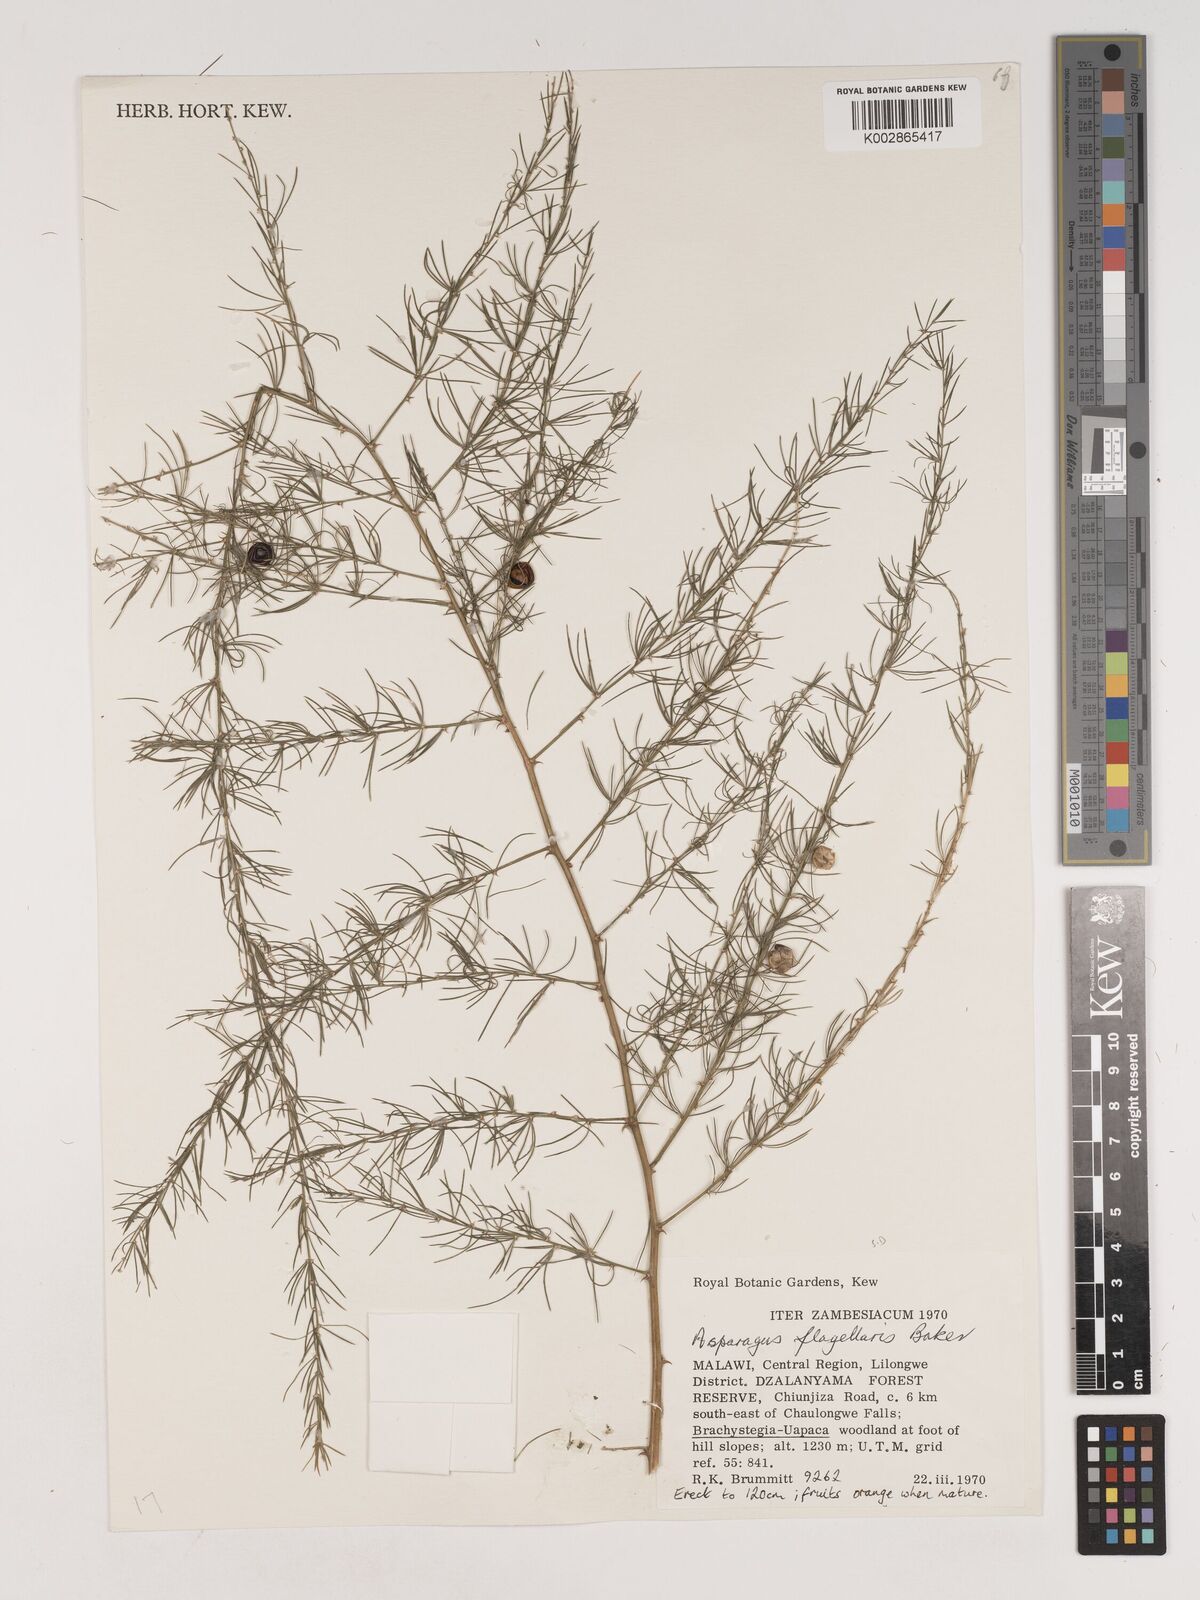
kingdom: Plantae
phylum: Tracheophyta
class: Liliopsida
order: Asparagales
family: Asparagaceae
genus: Asparagus
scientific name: Asparagus flagellaris
